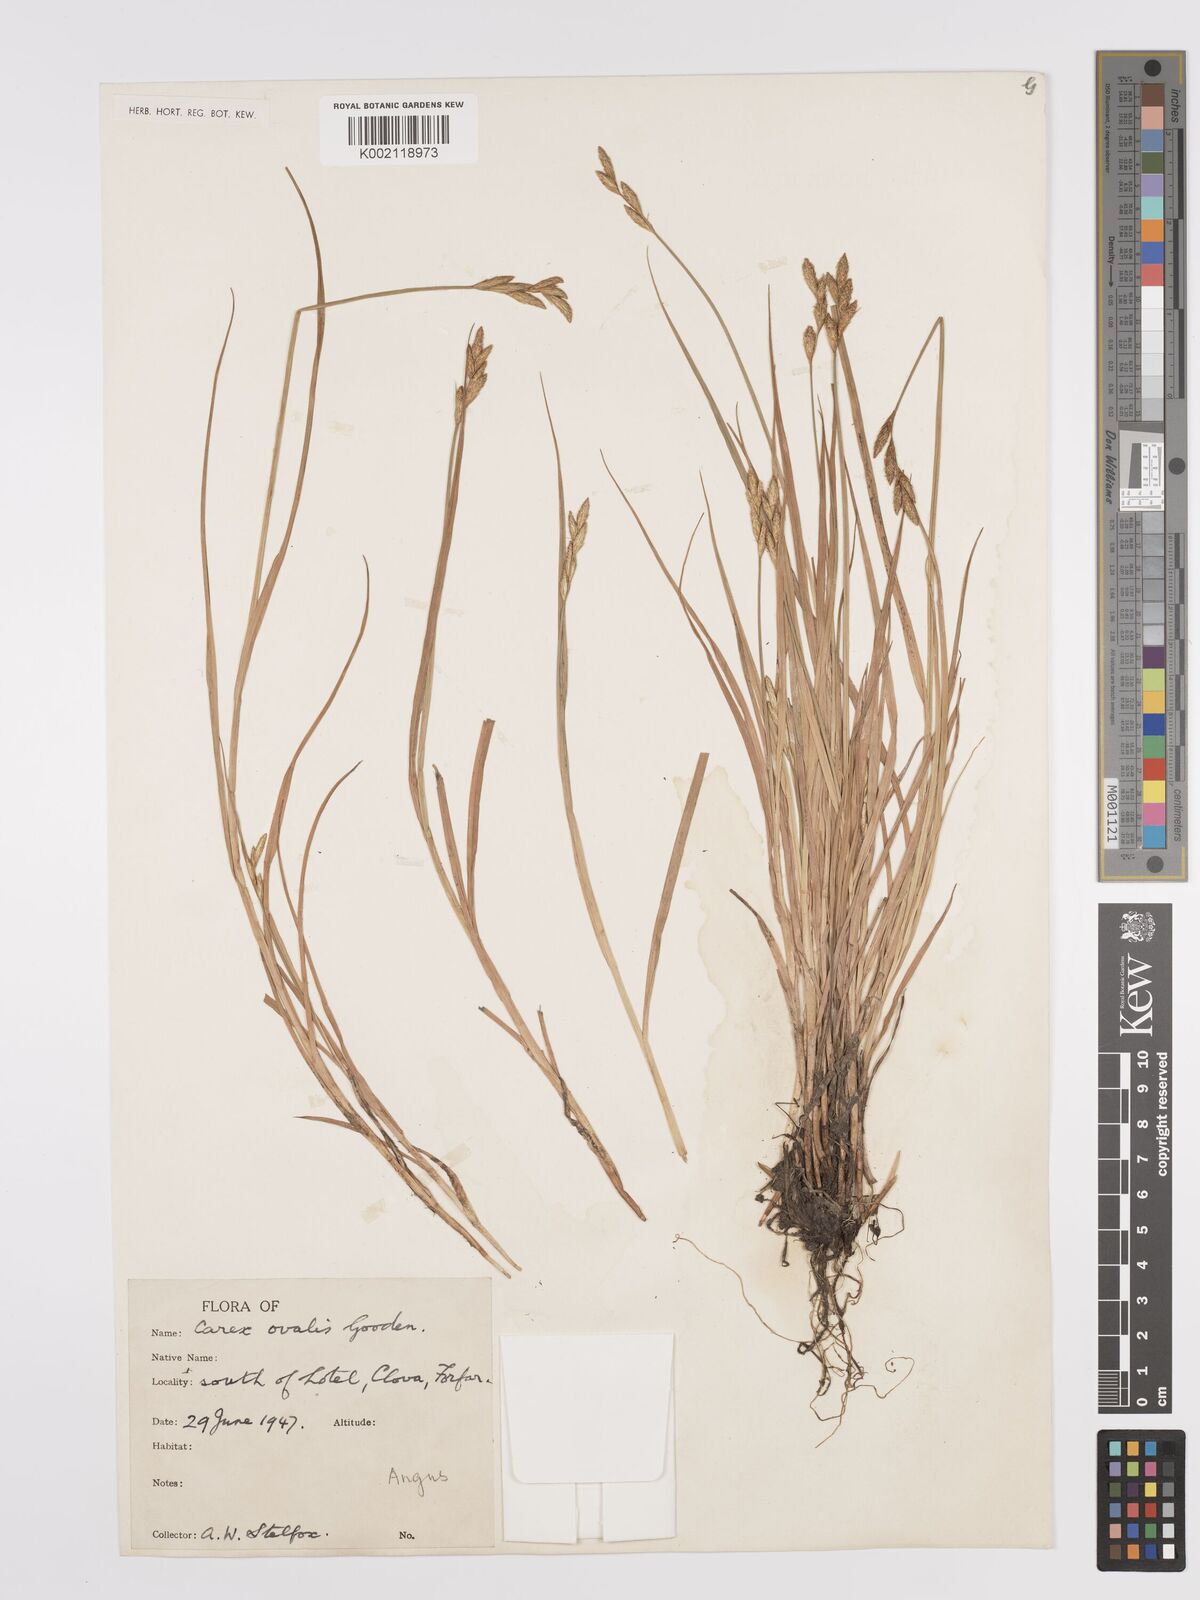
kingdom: Plantae
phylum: Tracheophyta
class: Liliopsida
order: Poales
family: Cyperaceae
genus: Carex
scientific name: Carex leporina
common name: Oval sedge
